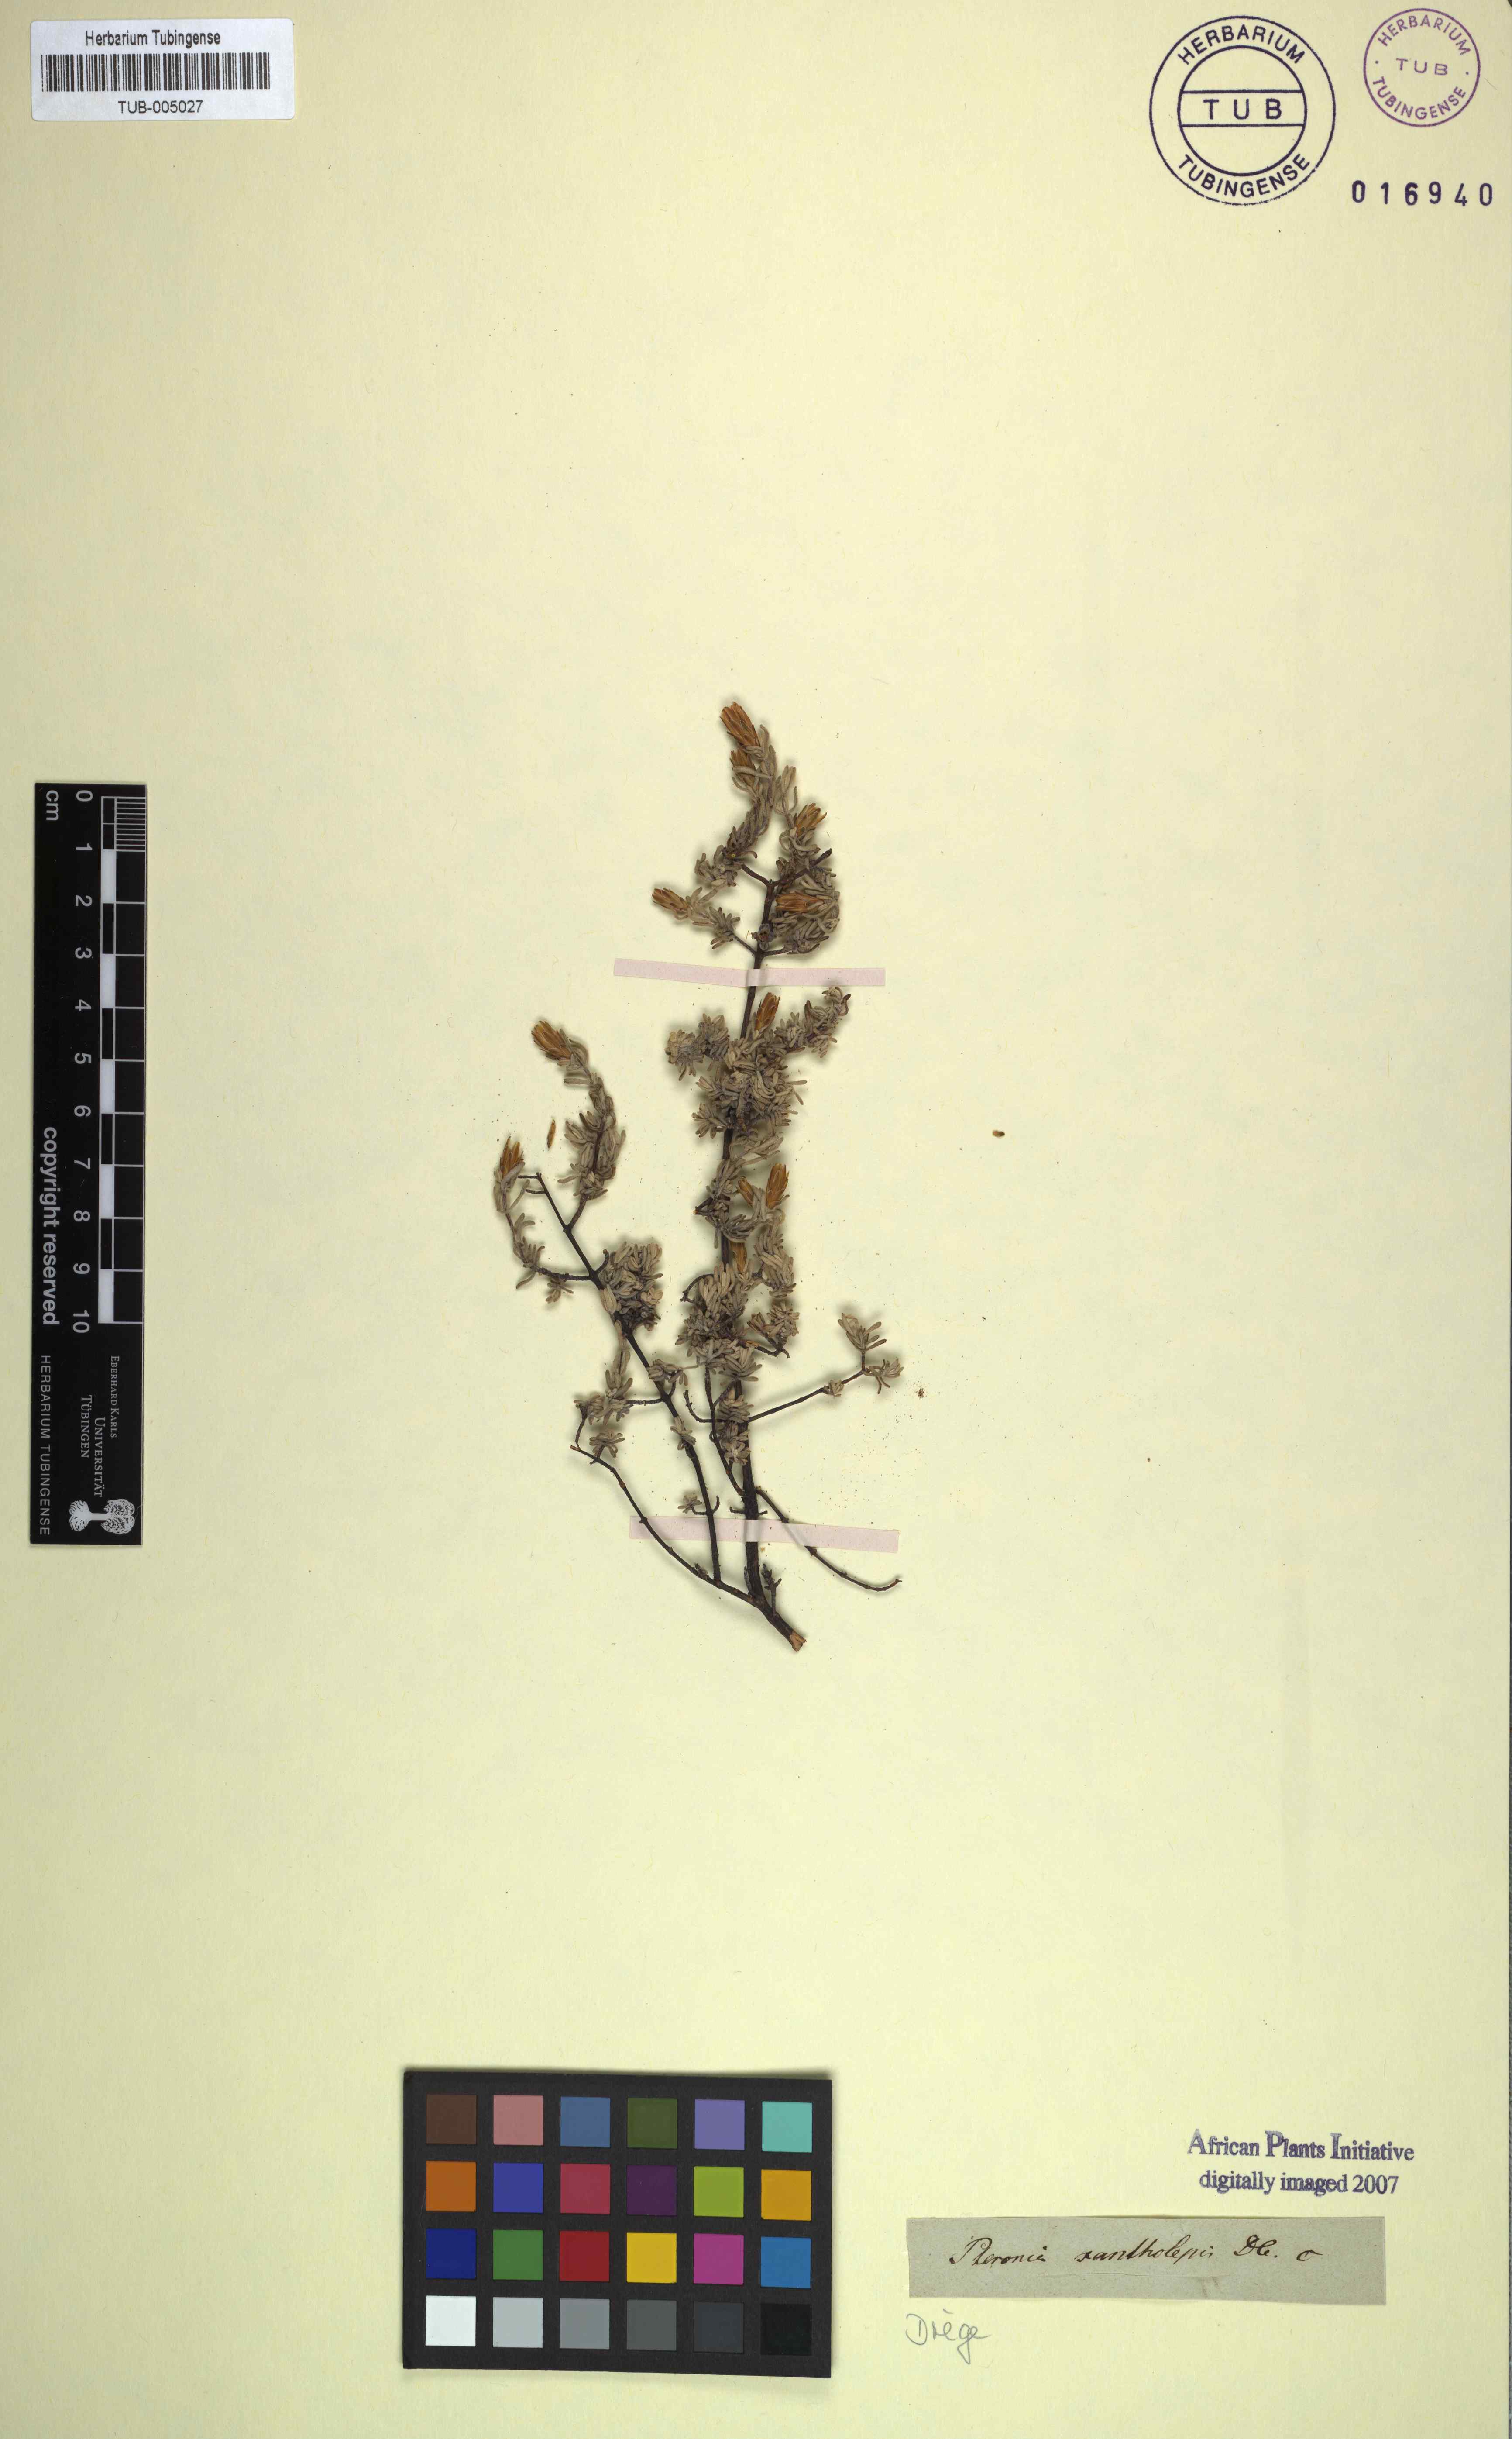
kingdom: Plantae
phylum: Tracheophyta
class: Magnoliopsida
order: Asterales
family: Asteraceae
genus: Pteronia
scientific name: Pteronia incana
